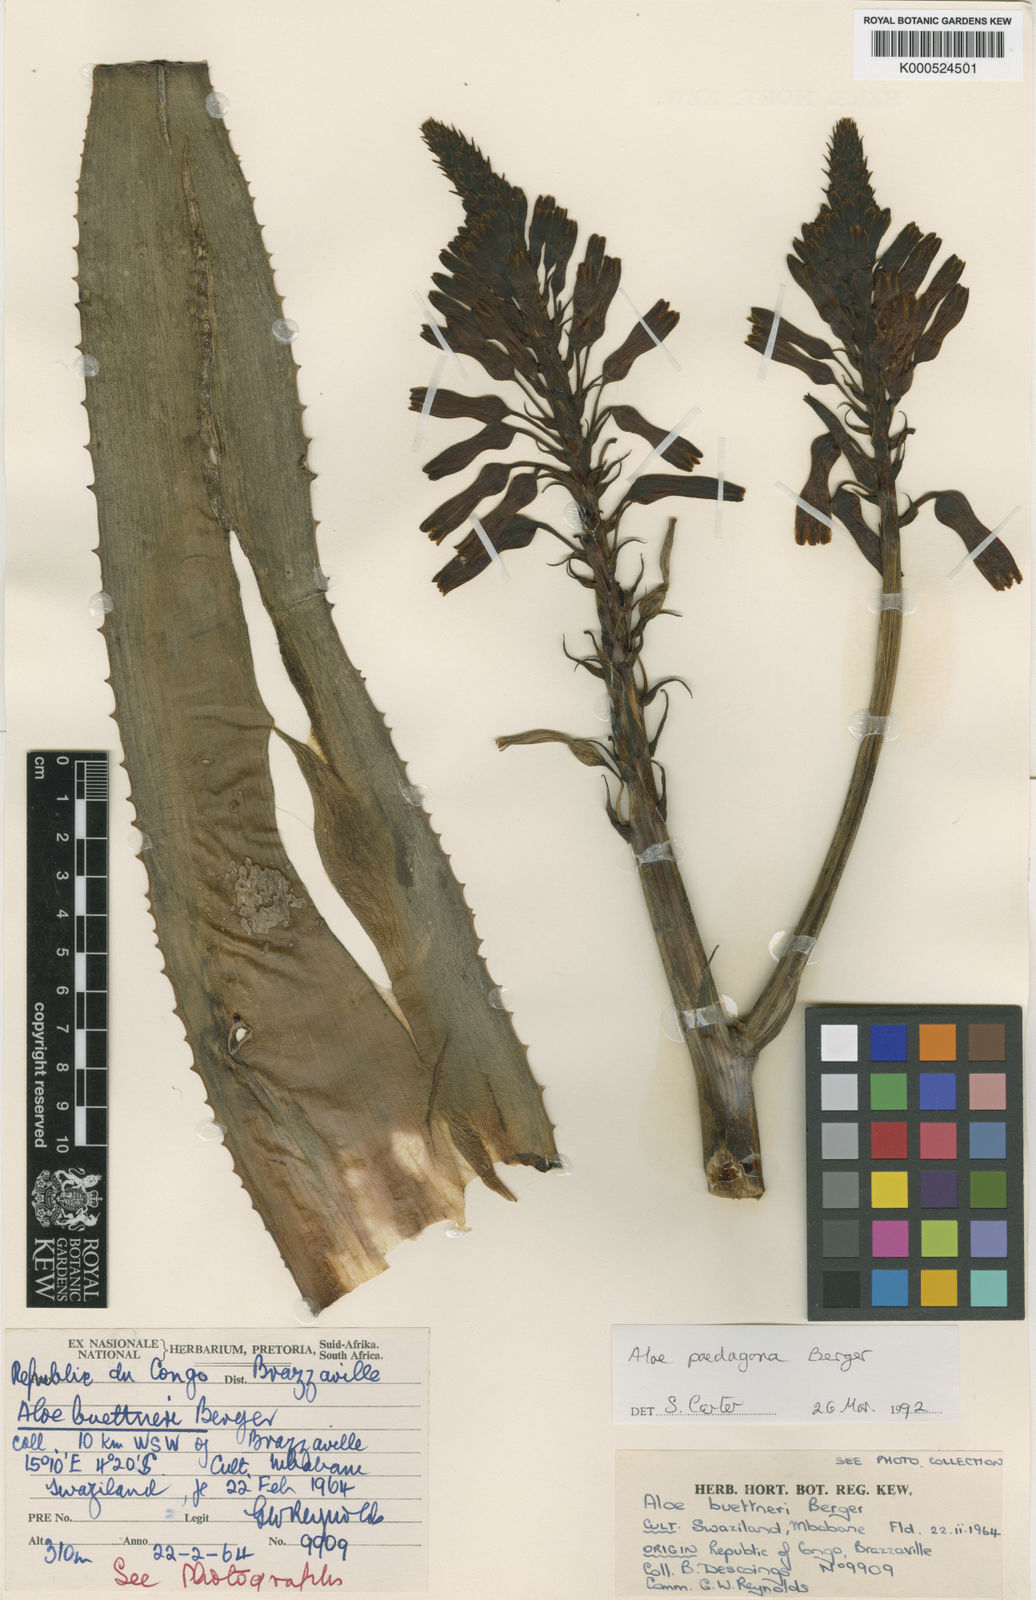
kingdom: Plantae
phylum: Tracheophyta
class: Liliopsida
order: Asparagales
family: Asphodelaceae
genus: Aloe
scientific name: Aloe paedogona
